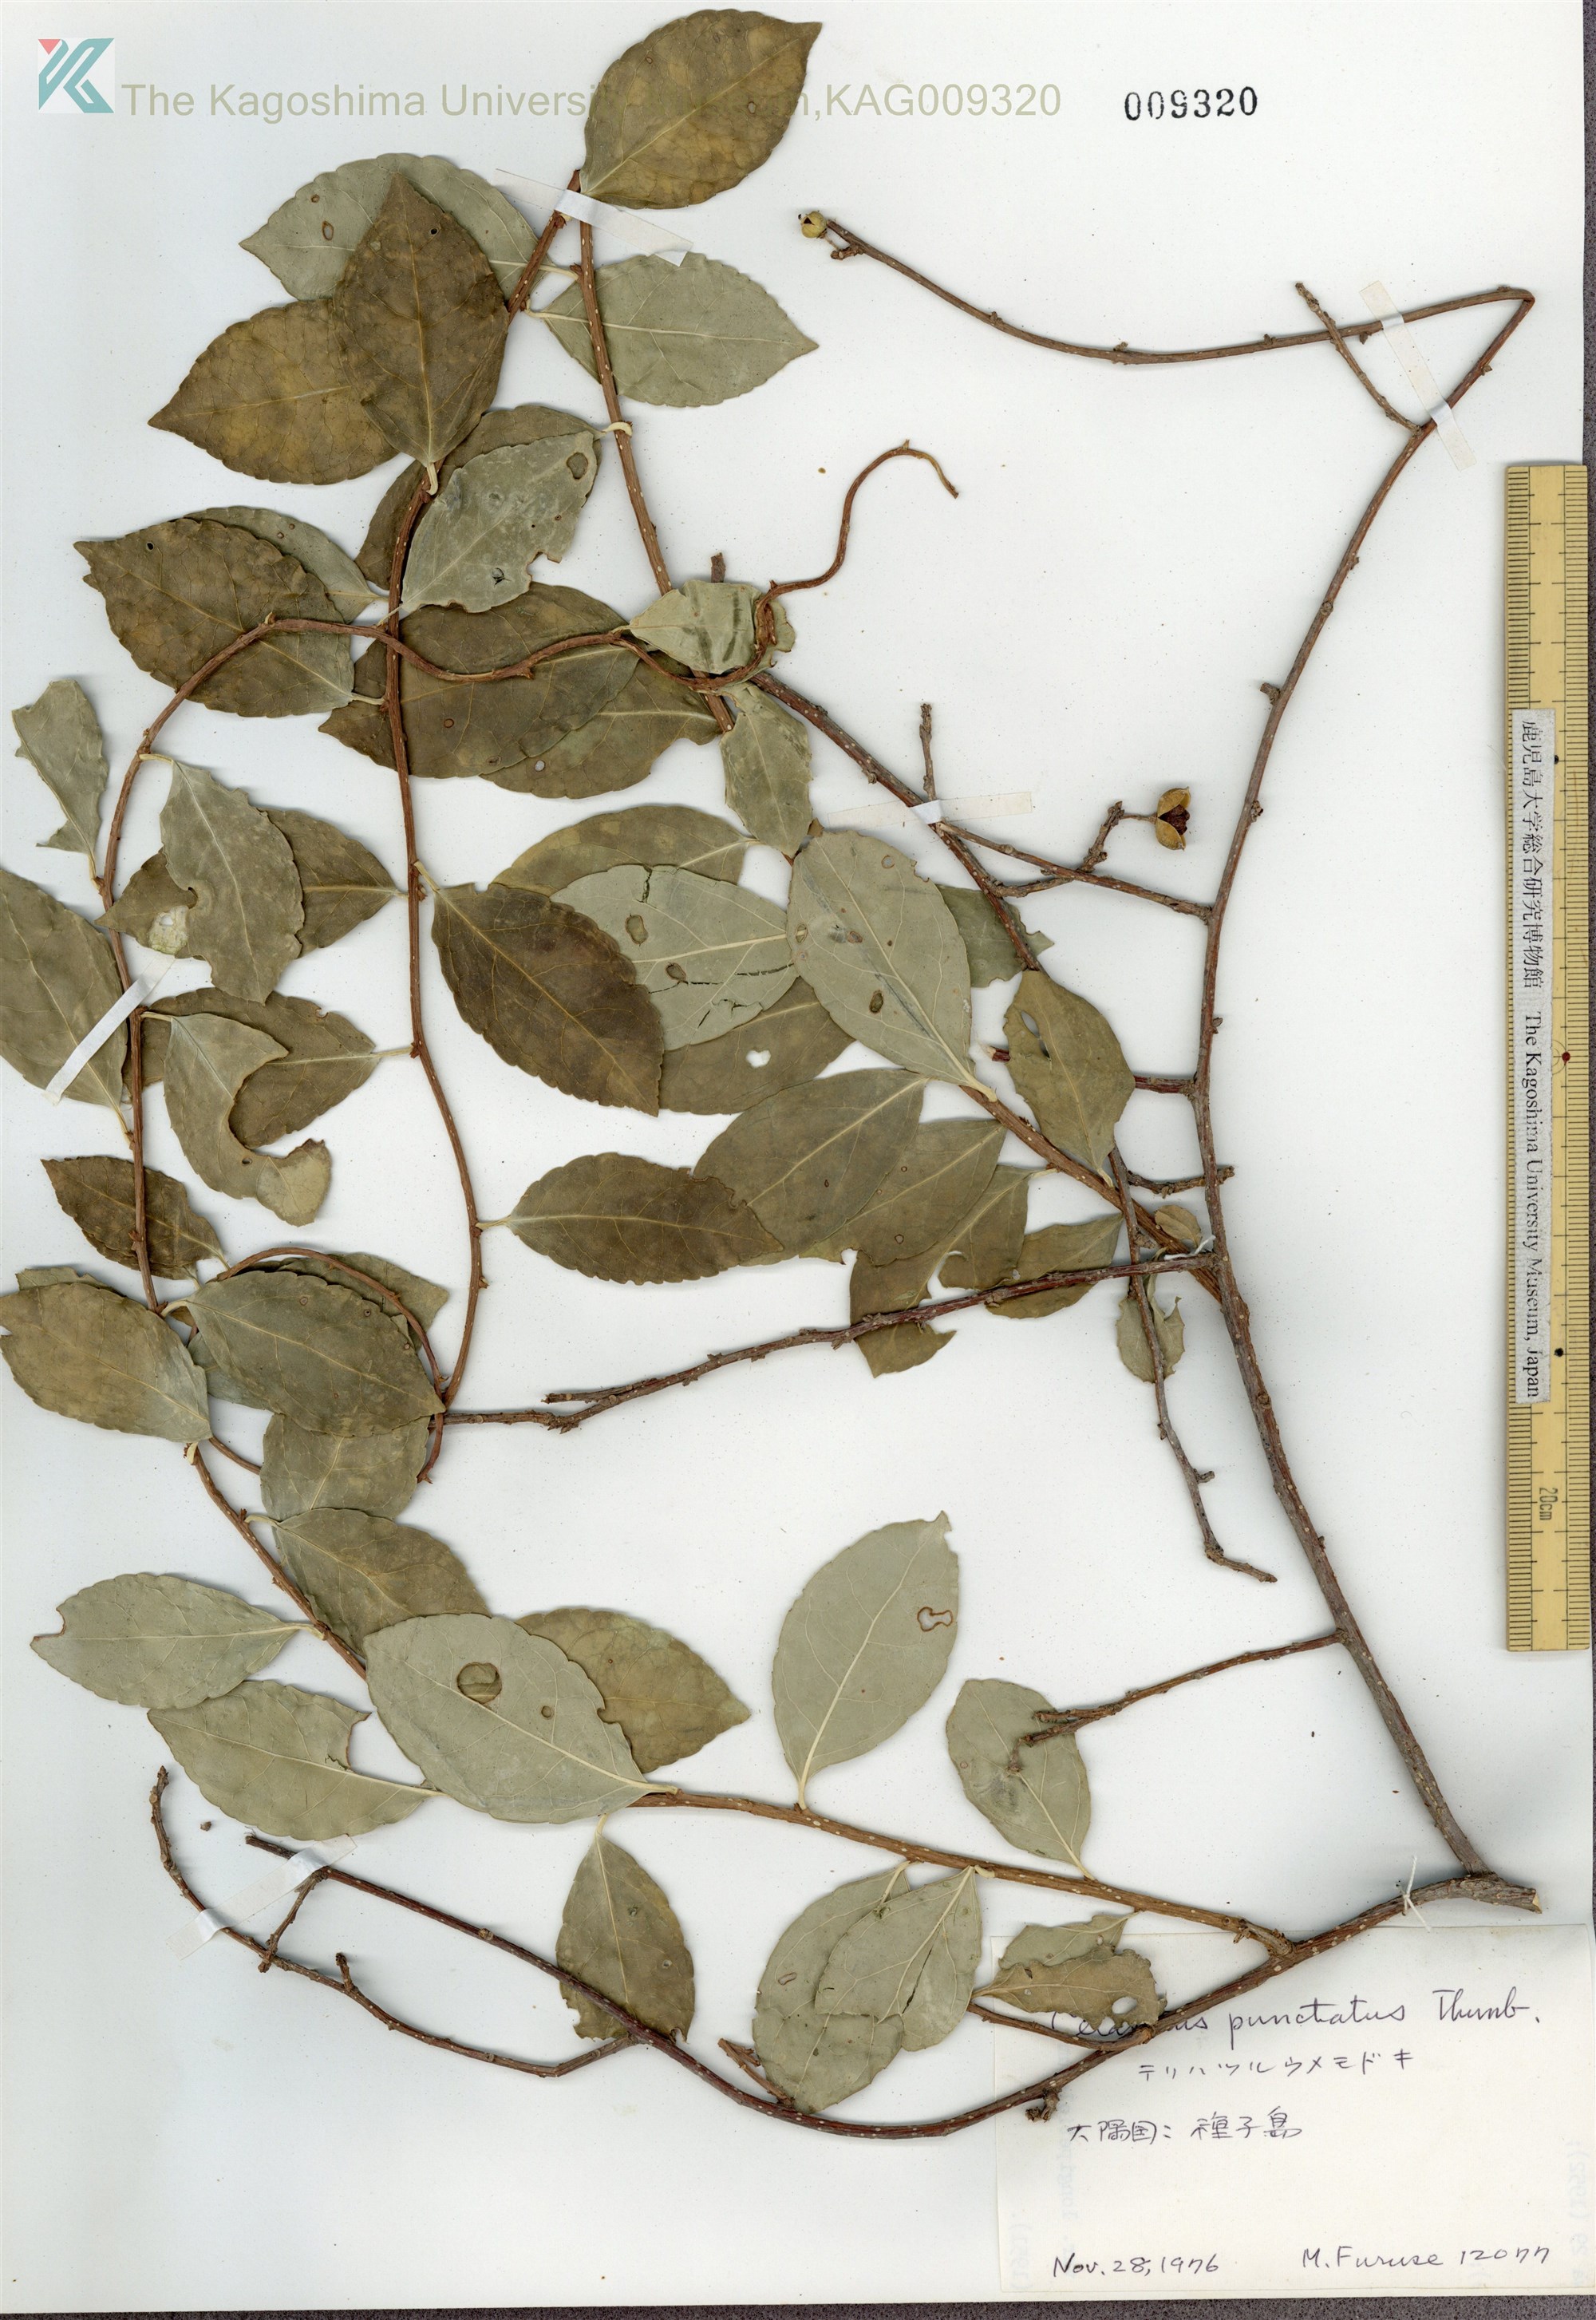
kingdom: Plantae
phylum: Tracheophyta
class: Magnoliopsida
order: Celastrales
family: Celastraceae
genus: Celastrus
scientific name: Celastrus punctatus
